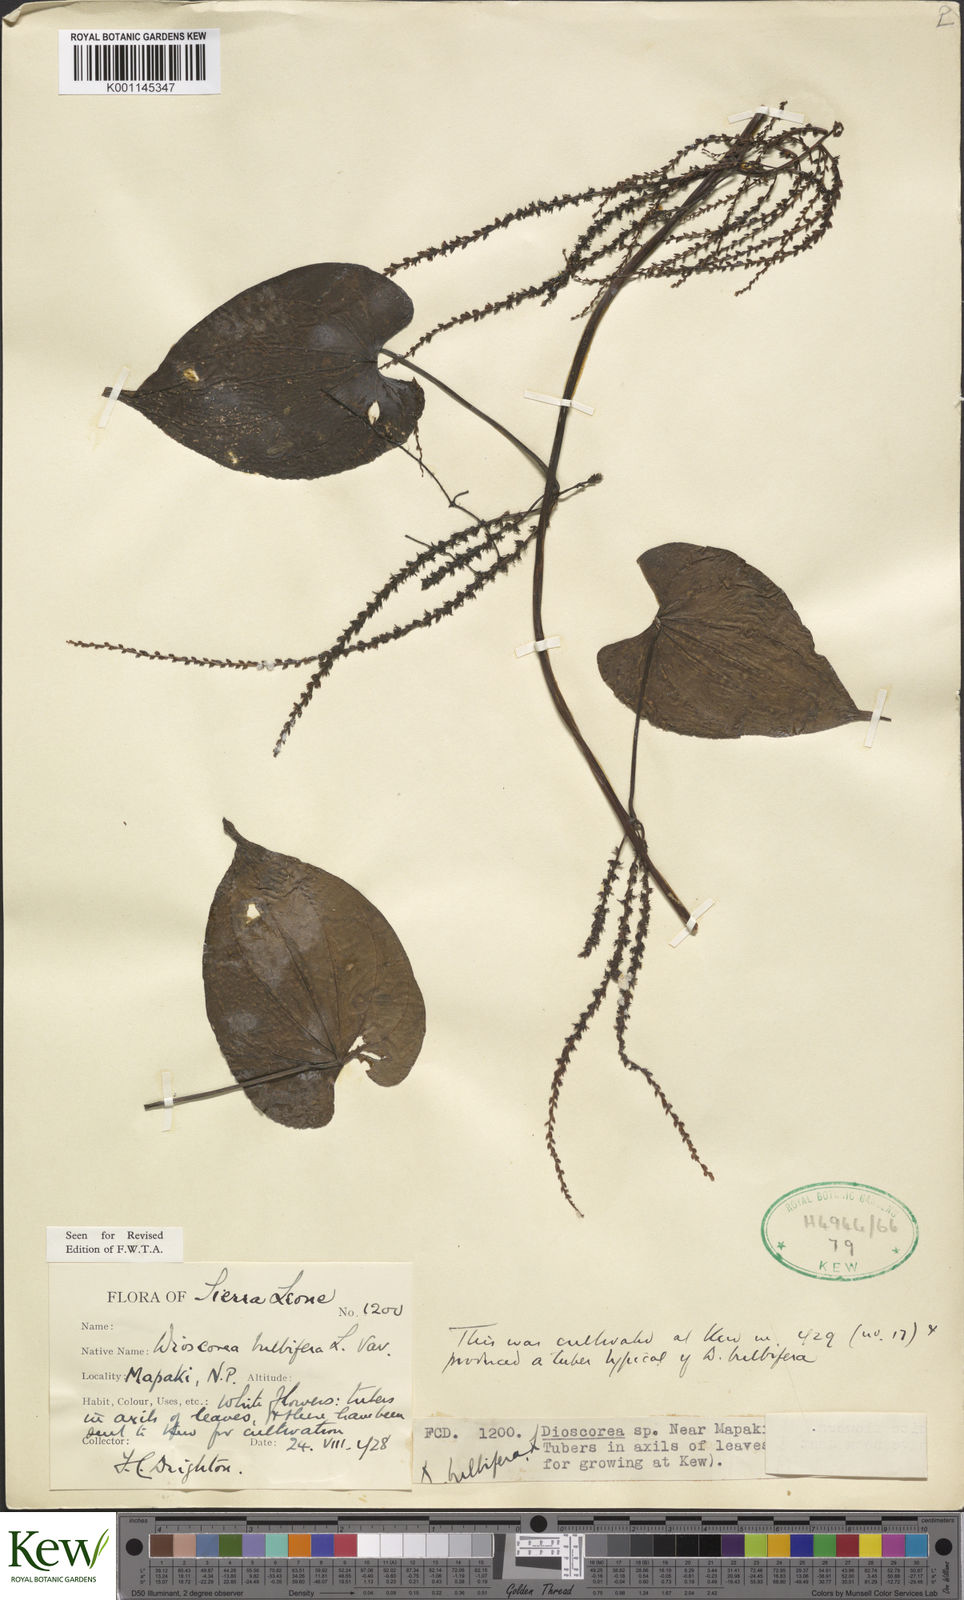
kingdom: Plantae
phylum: Tracheophyta
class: Liliopsida
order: Dioscoreales
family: Dioscoreaceae
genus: Dioscorea
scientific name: Dioscorea bulbifera
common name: Air yam
